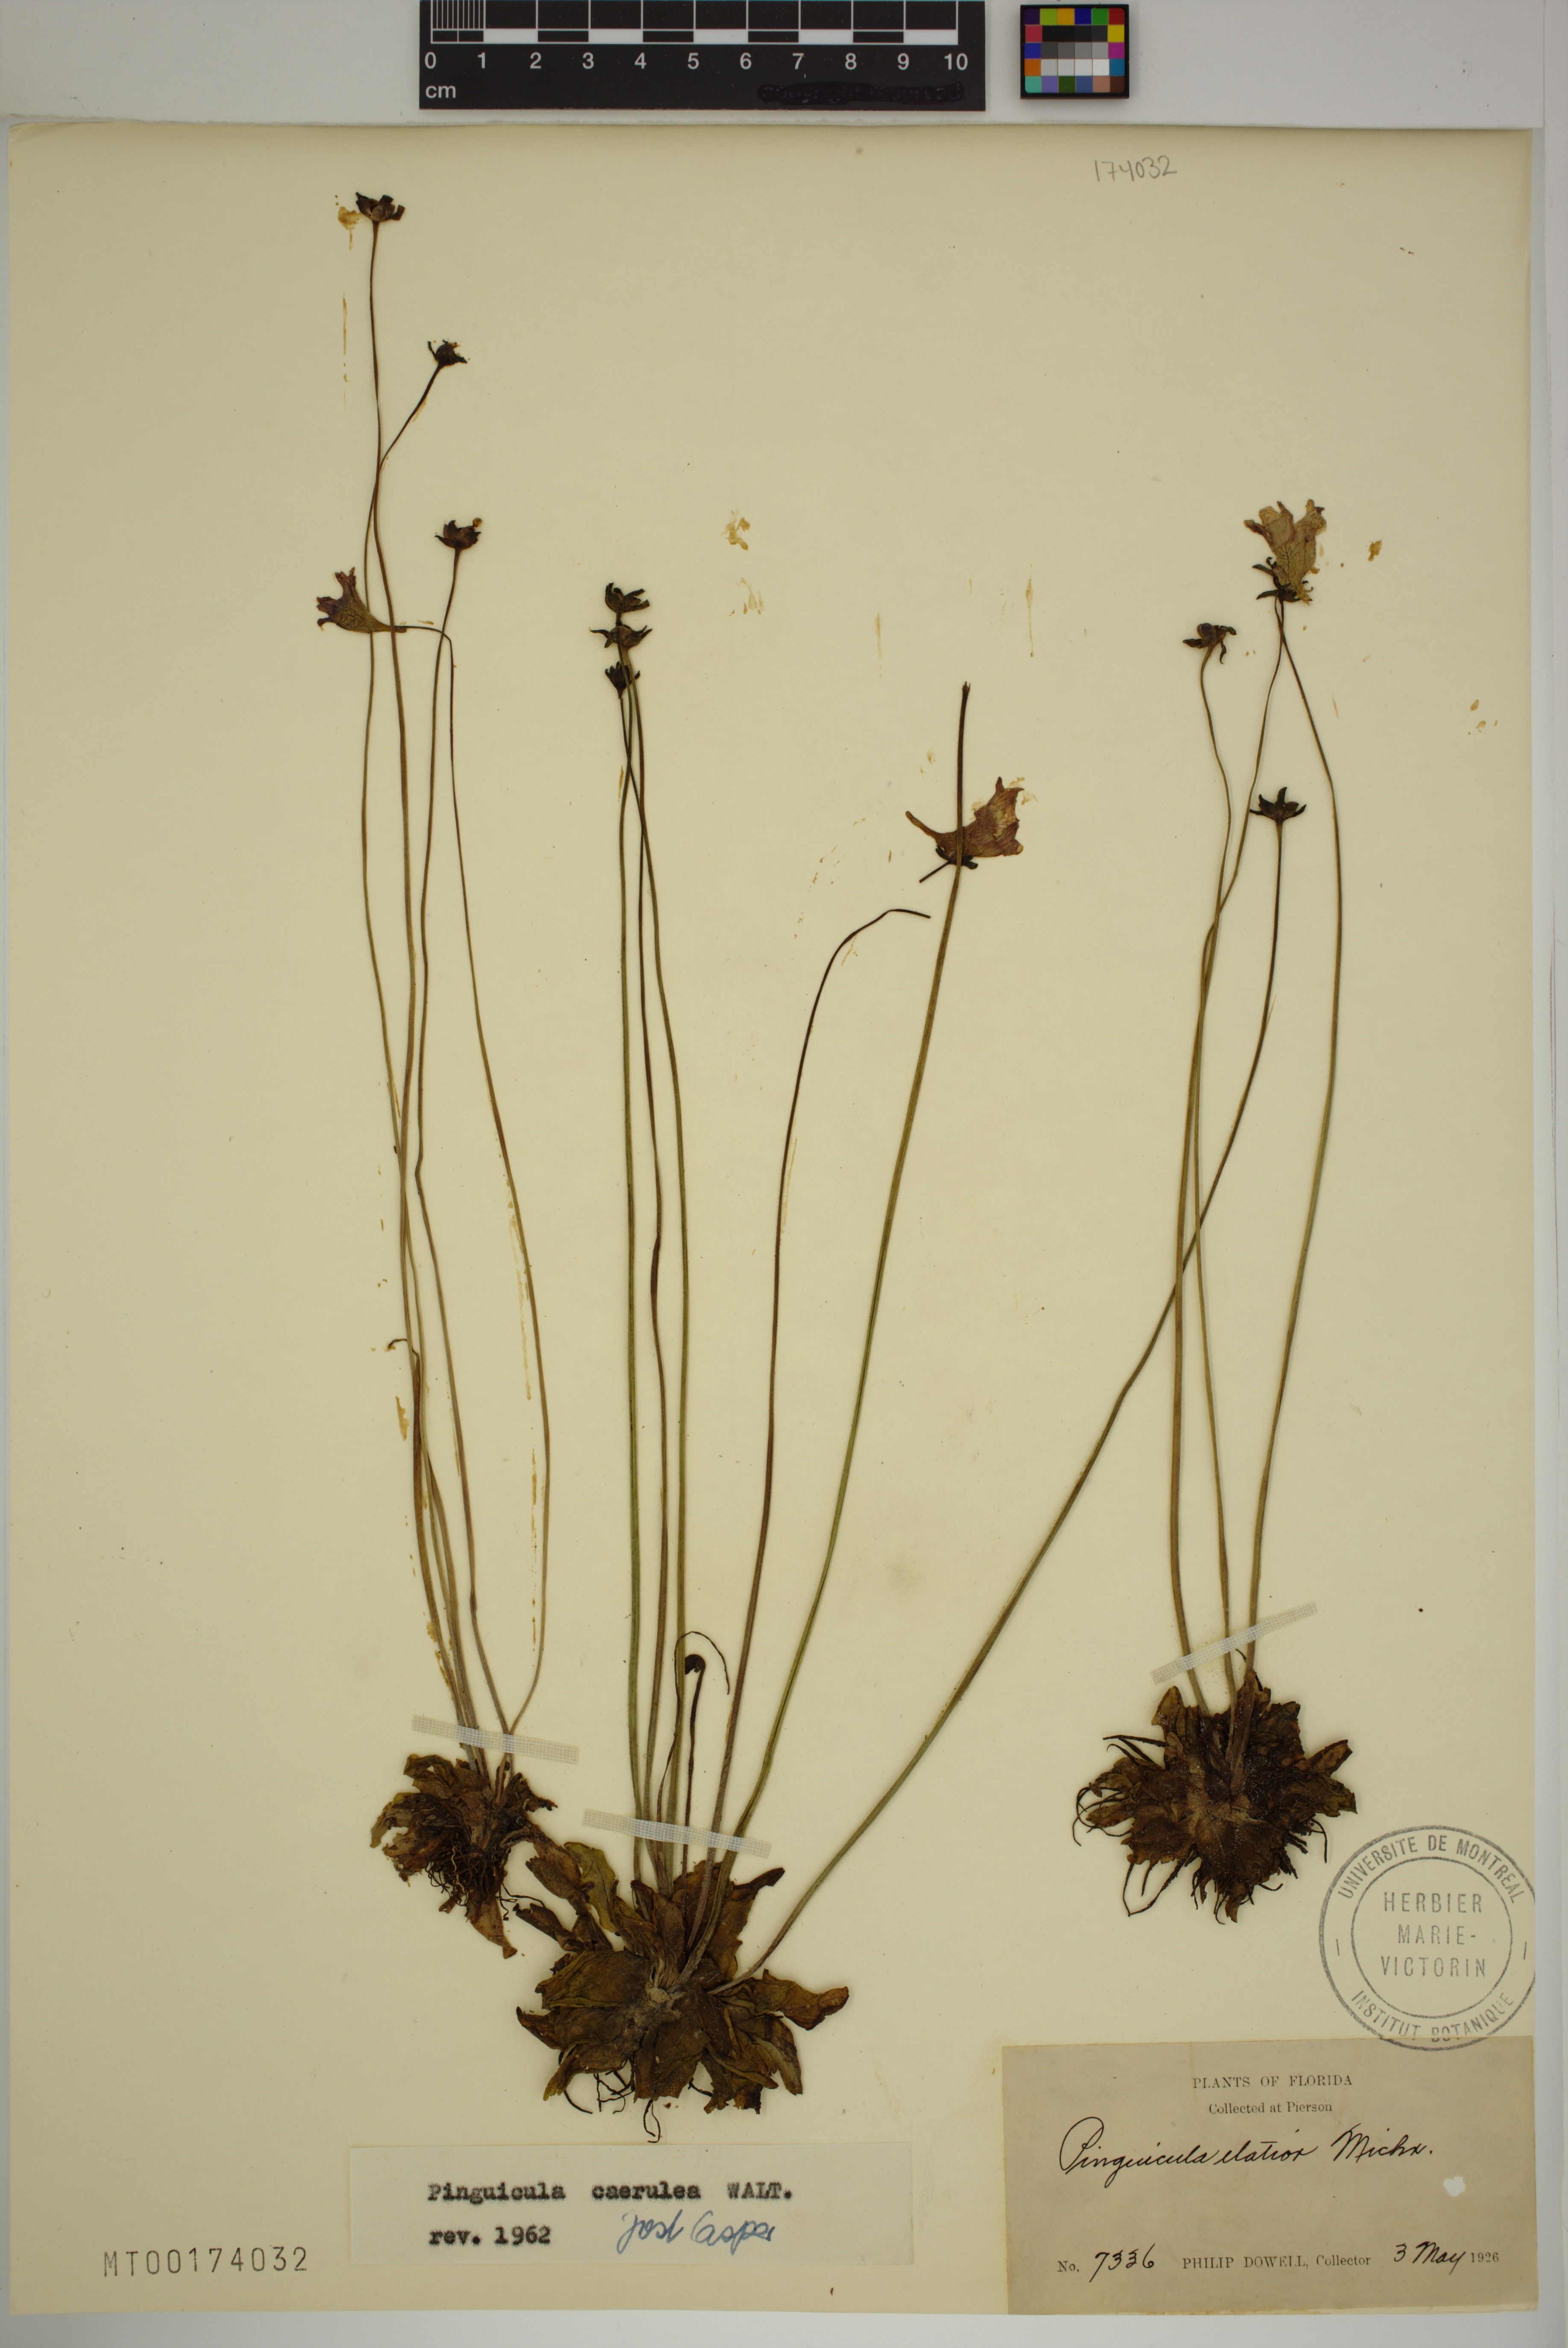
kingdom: Plantae
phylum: Tracheophyta
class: Magnoliopsida
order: Lamiales
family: Lentibulariaceae
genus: Pinguicula
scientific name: Pinguicula caerulea
